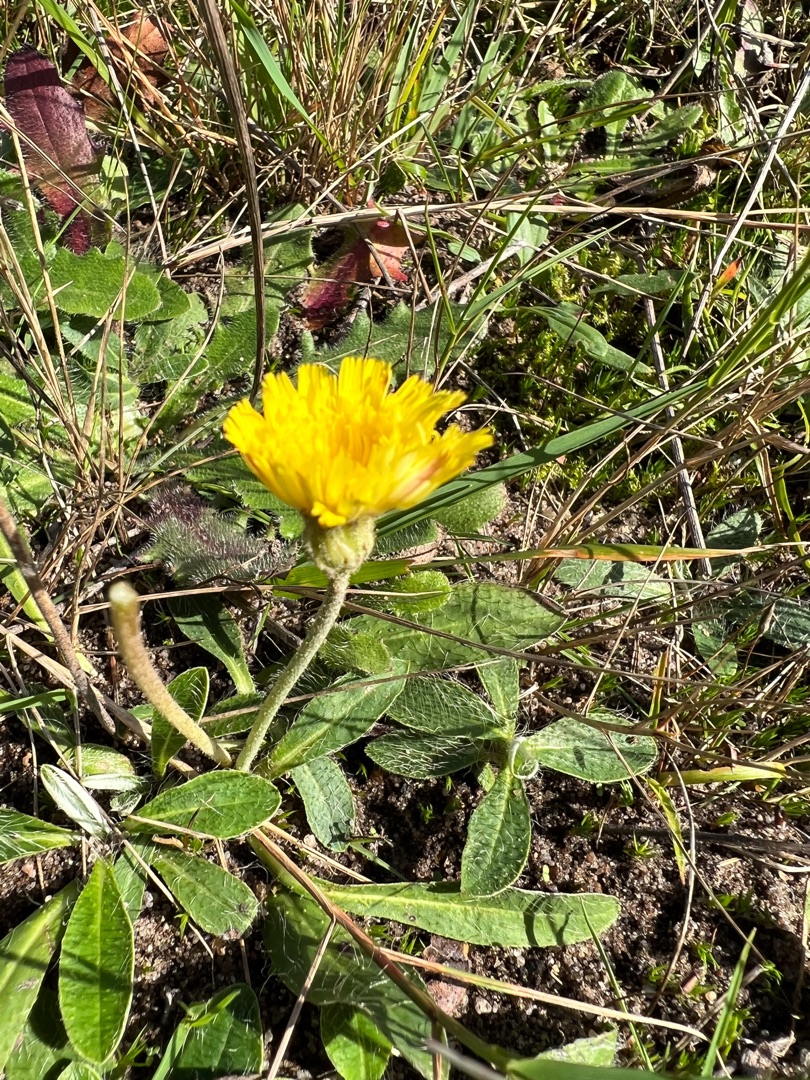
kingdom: Plantae
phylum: Tracheophyta
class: Magnoliopsida
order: Asterales
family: Asteraceae
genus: Pilosella
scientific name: Pilosella officinarum
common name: Håret høgeurt
